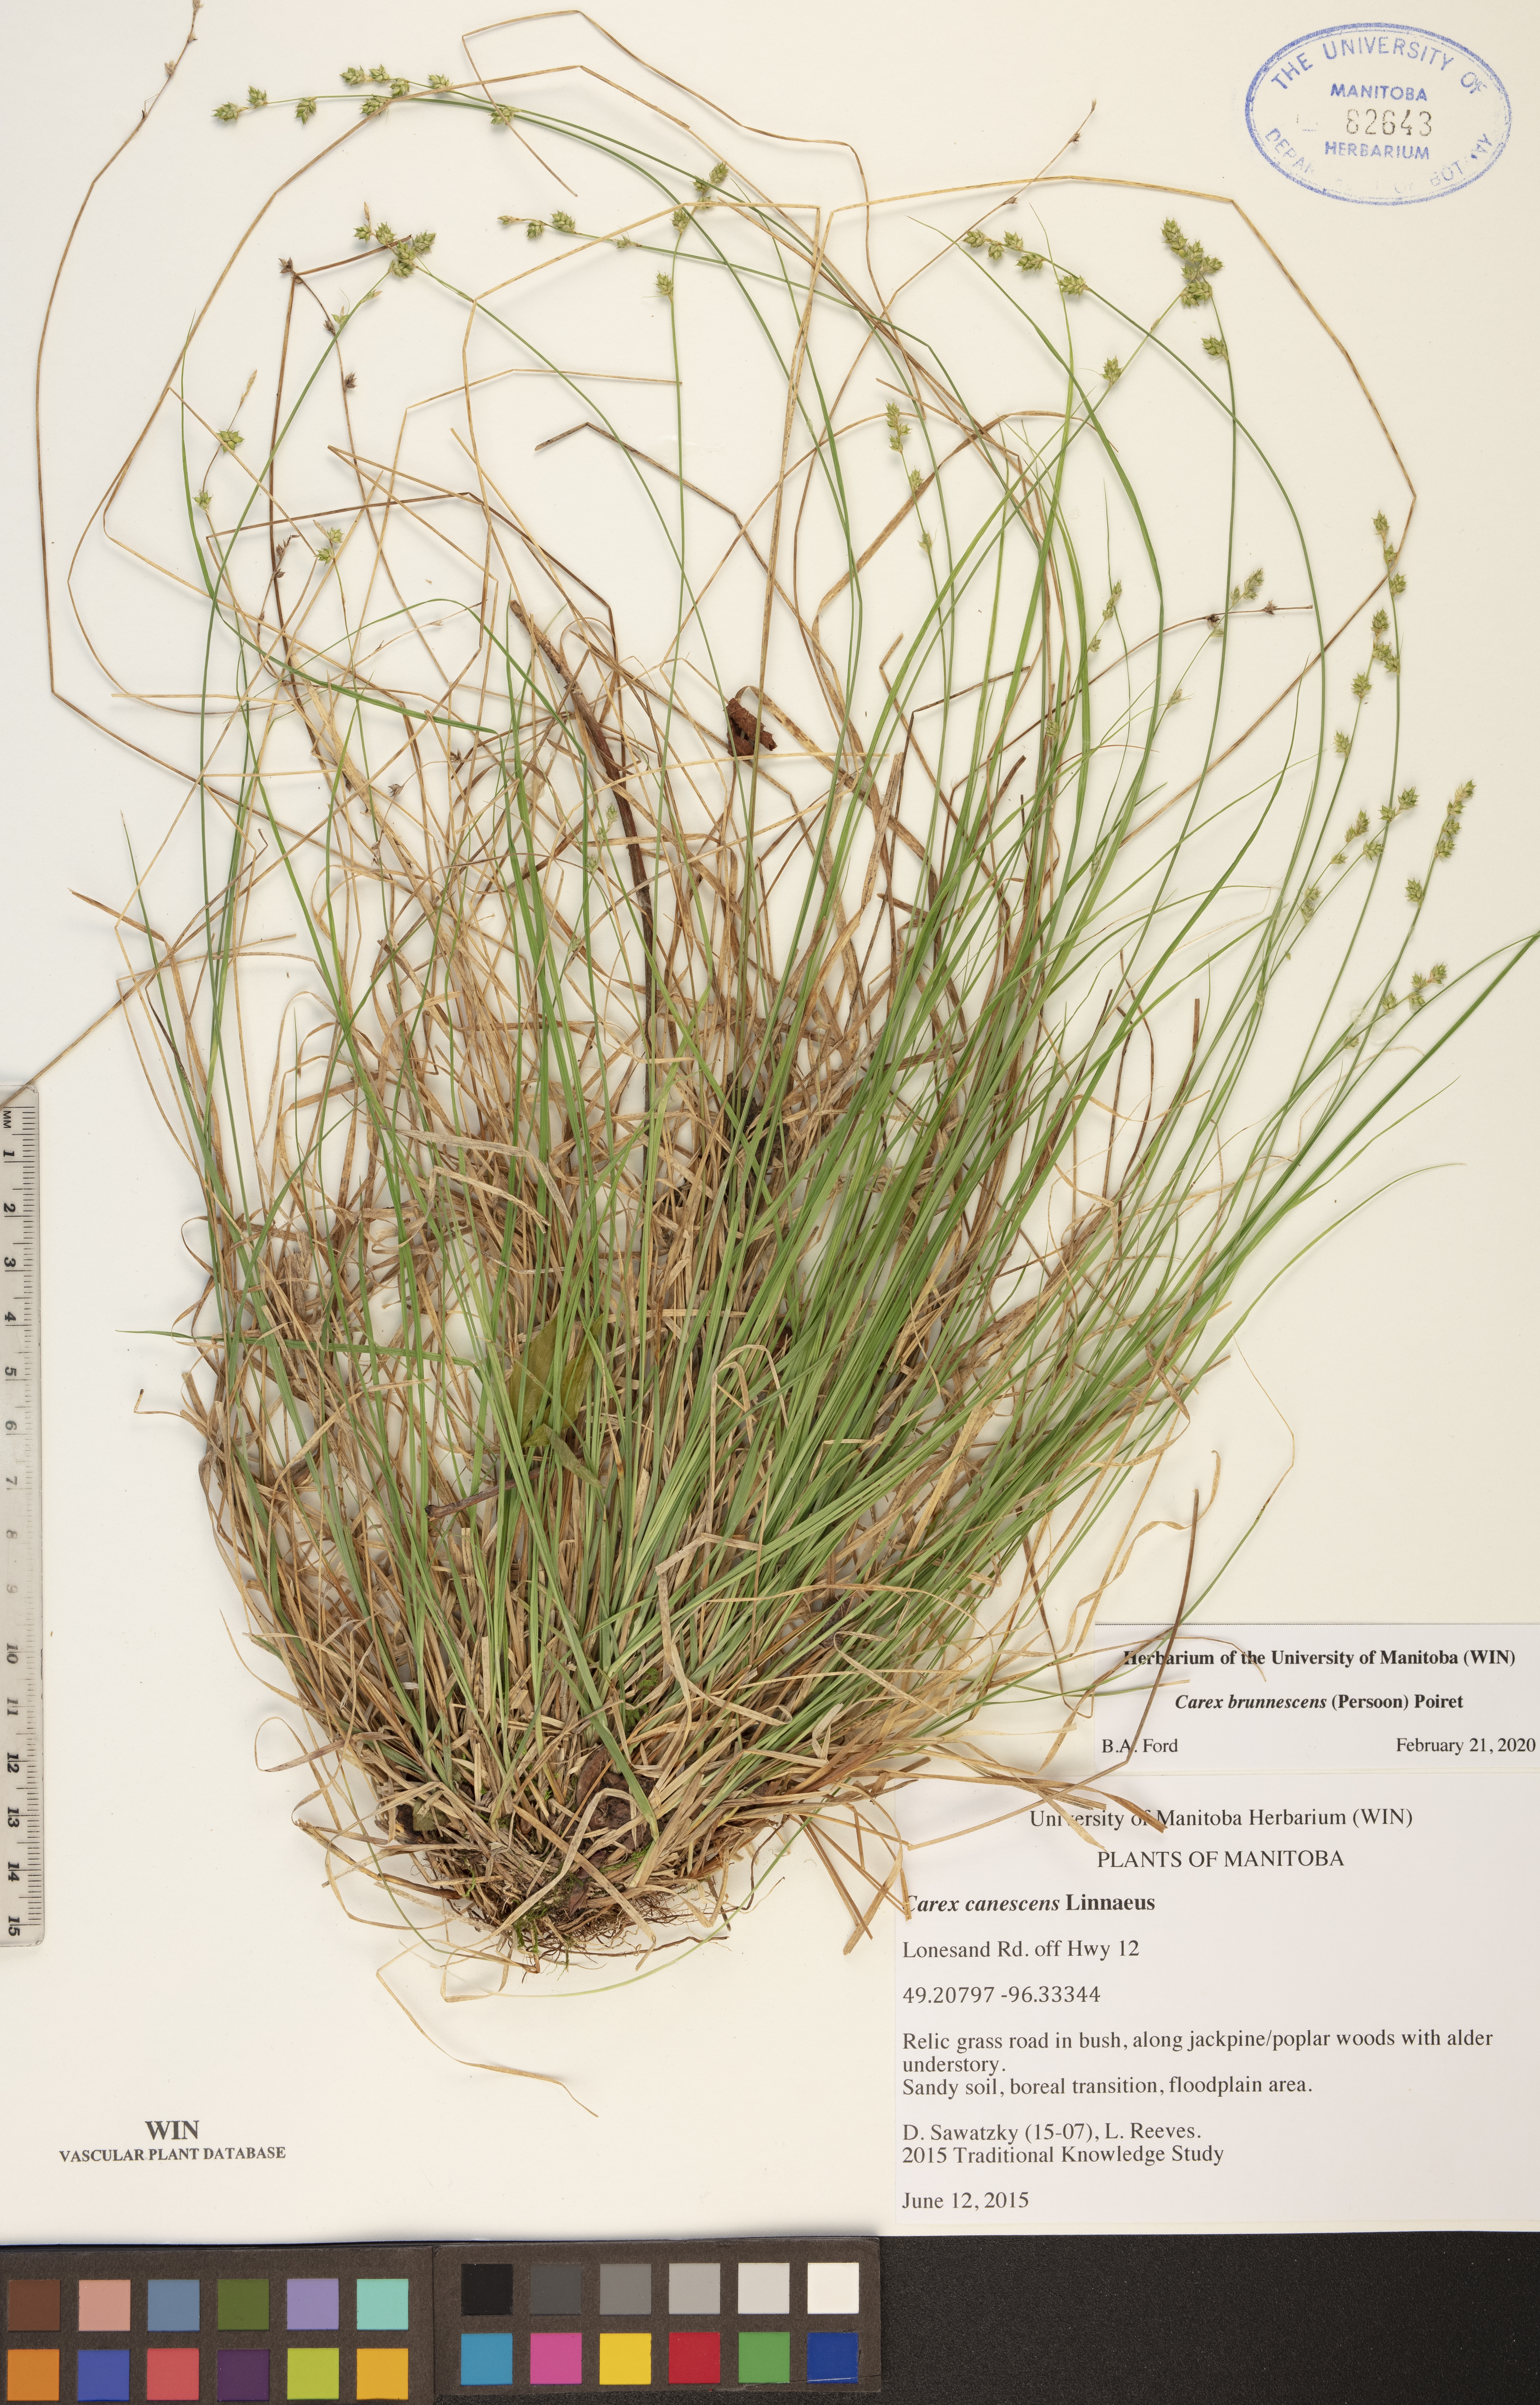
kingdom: Plantae
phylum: Tracheophyta
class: Liliopsida
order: Poales
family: Cyperaceae
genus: Carex
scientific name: Carex brunnescens
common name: Brown sedge
